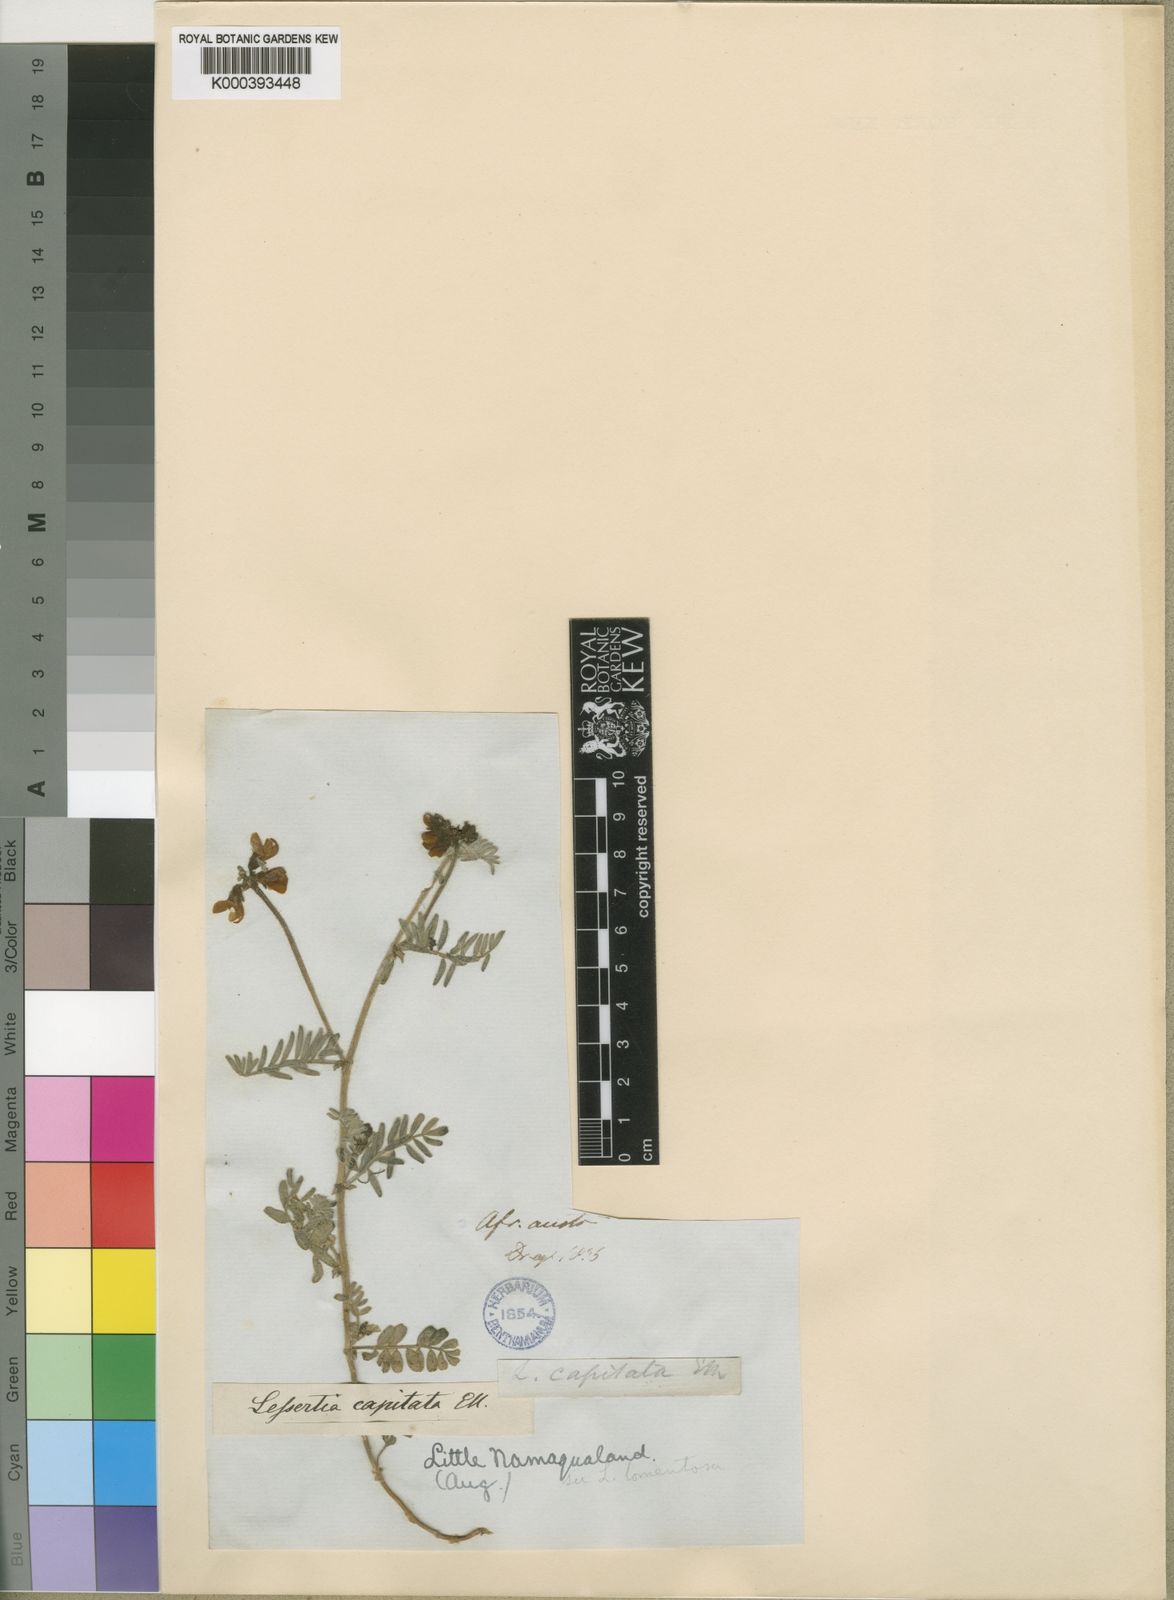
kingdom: Plantae
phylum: Tracheophyta
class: Magnoliopsida
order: Fabales
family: Fabaceae
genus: Lessertia
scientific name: Lessertia capitata
